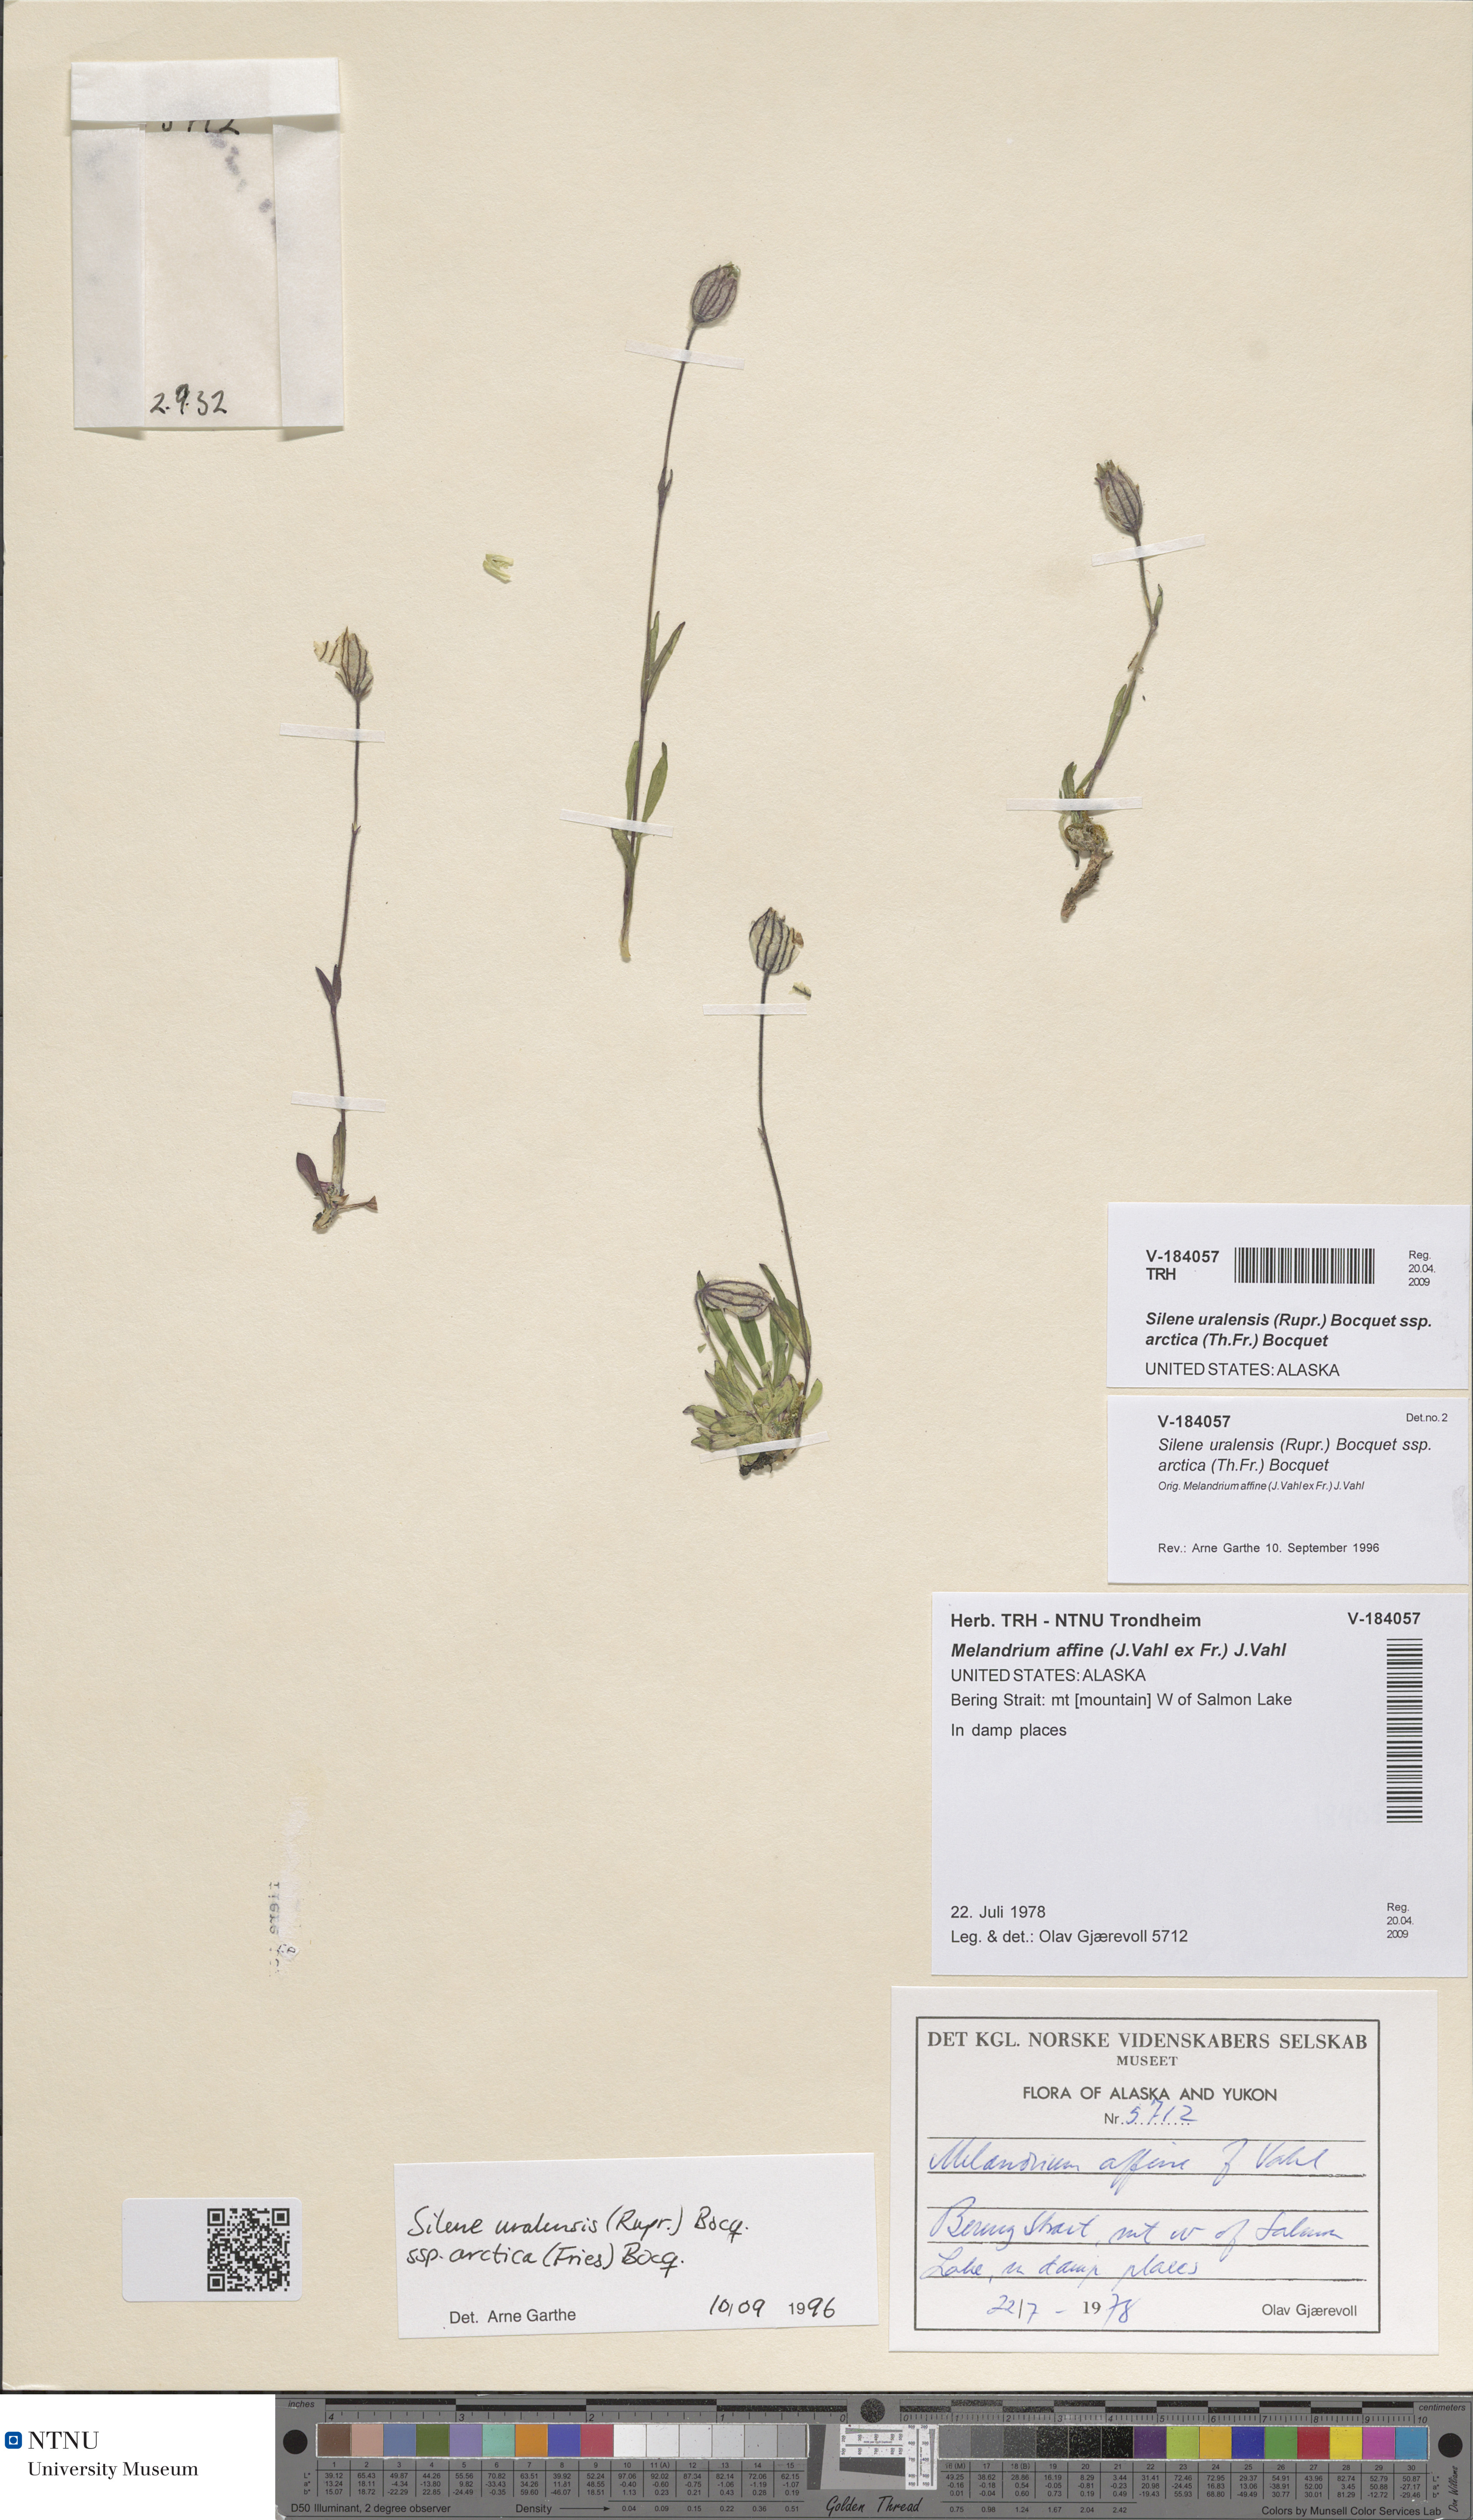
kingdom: Plantae
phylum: Tracheophyta
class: Magnoliopsida
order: Caryophyllales
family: Caryophyllaceae
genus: Silene
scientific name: Silene uralensis
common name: Nodding campion
